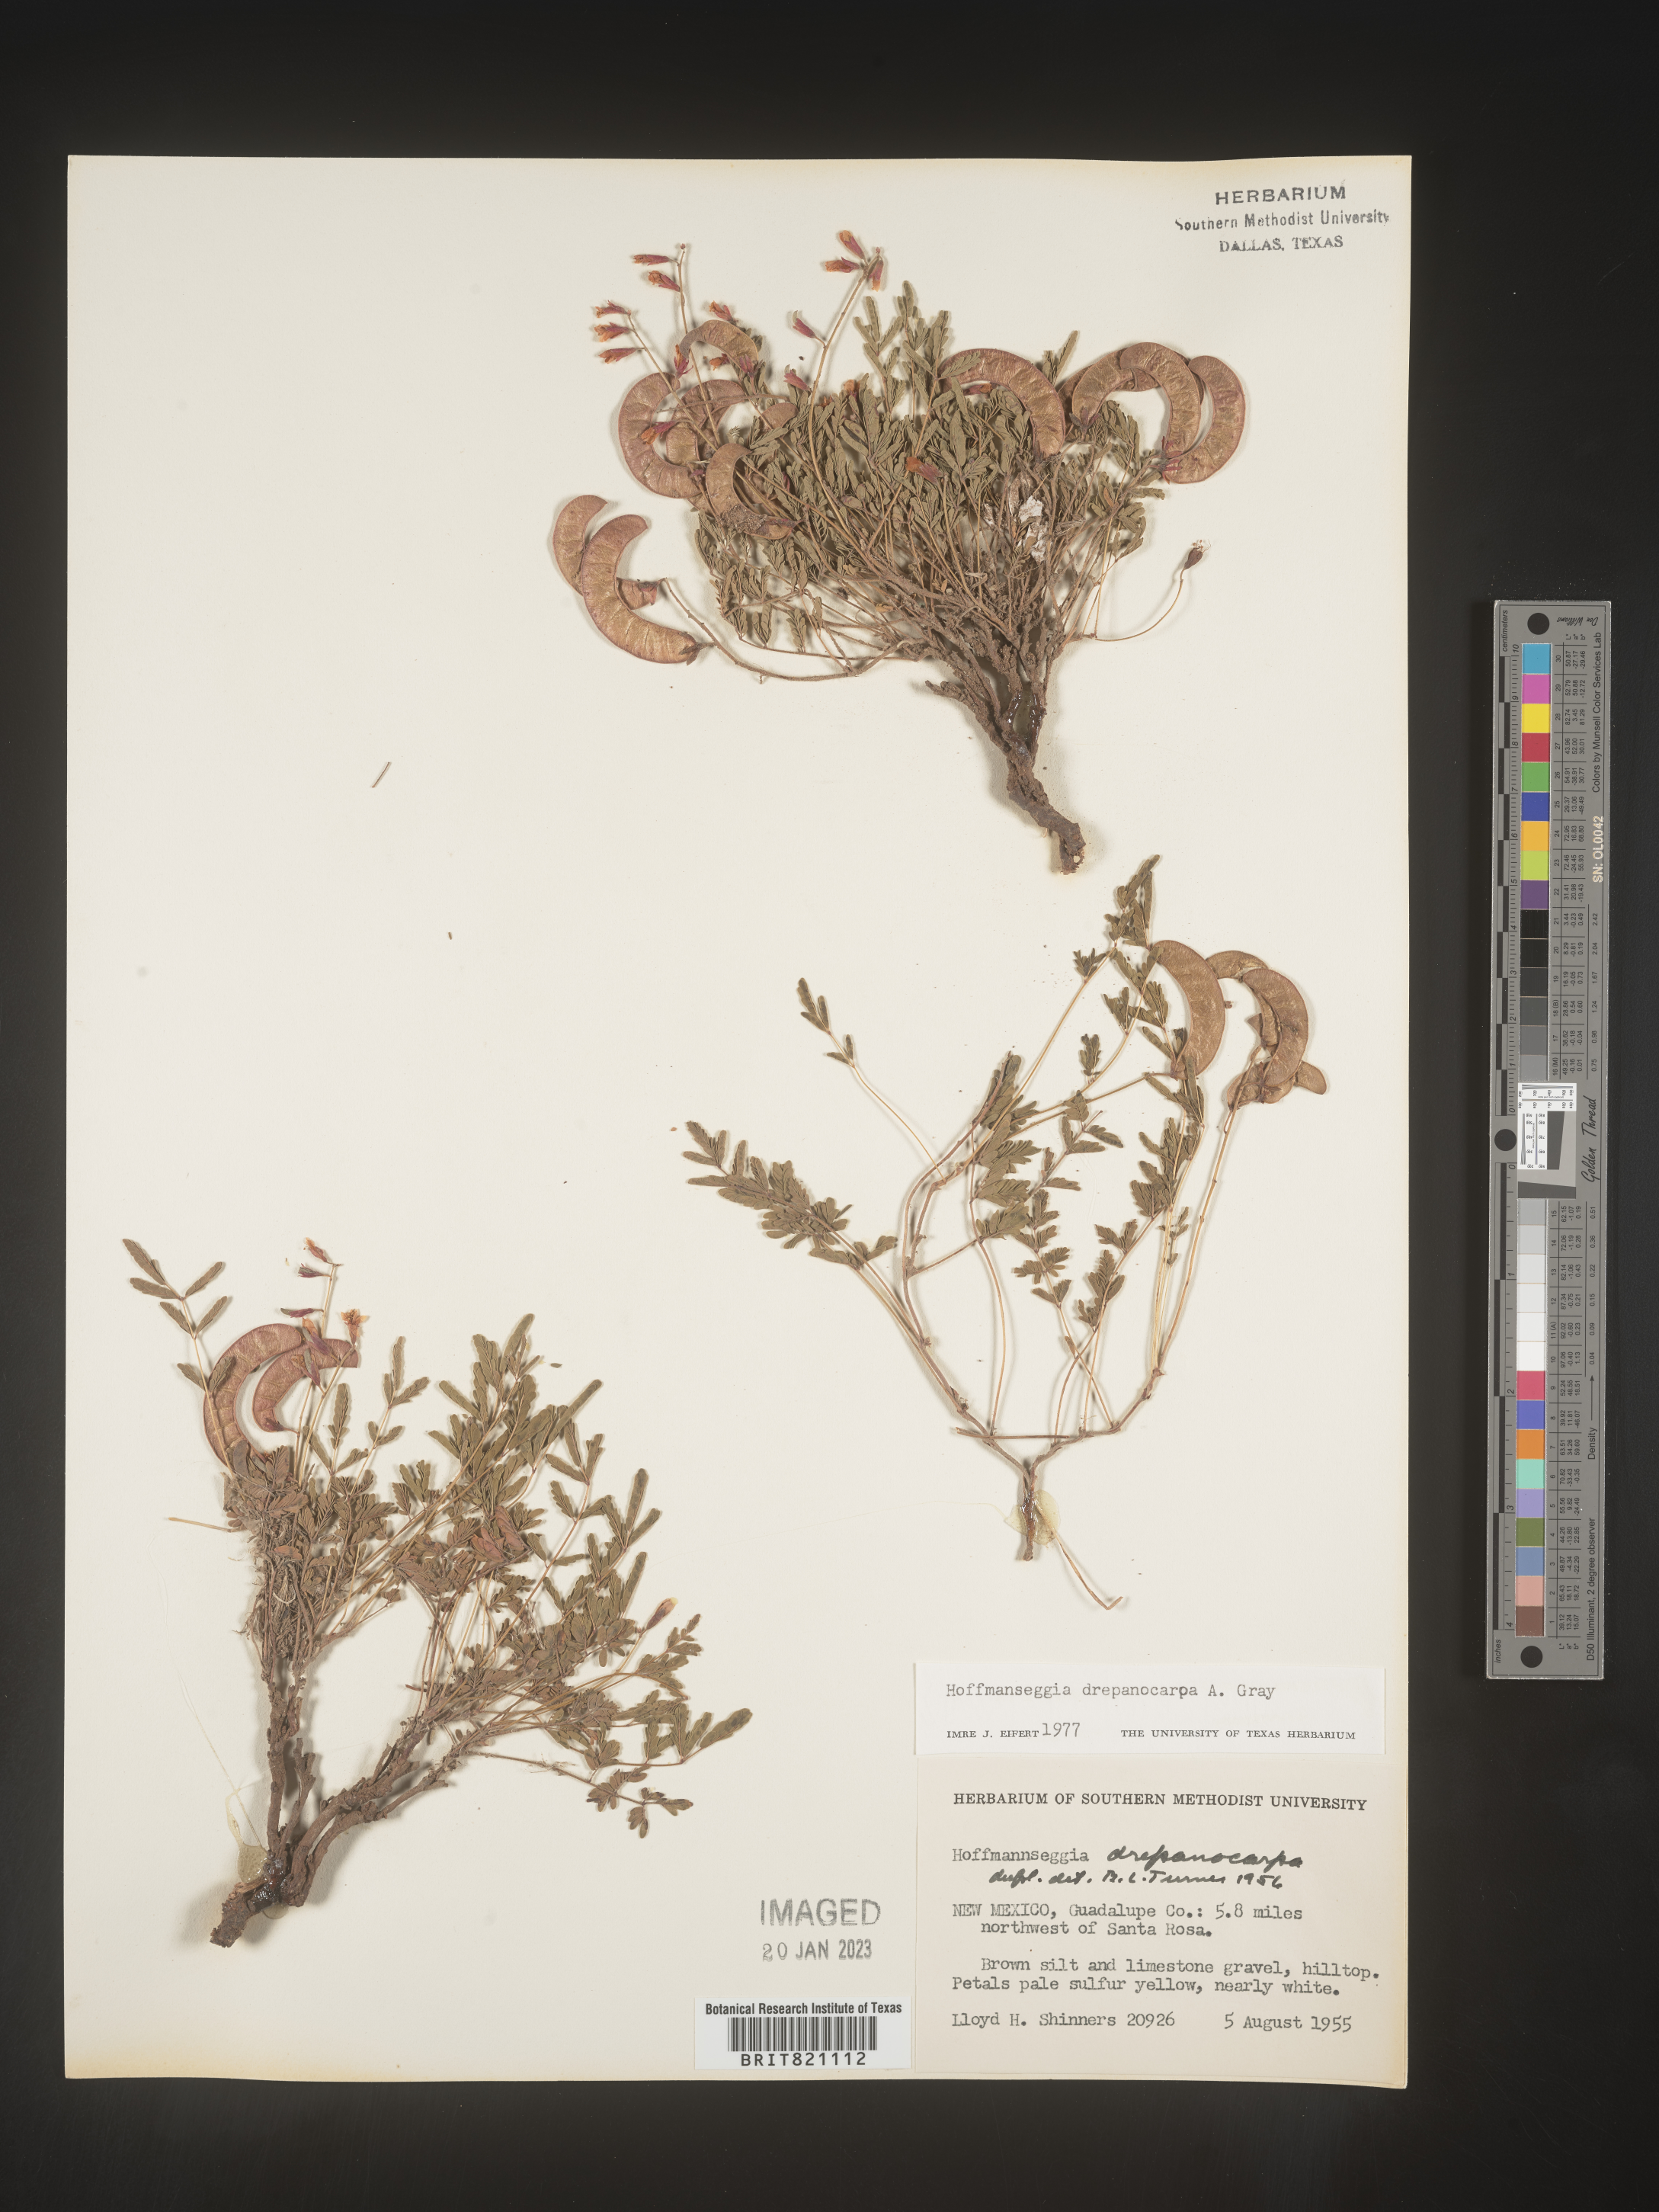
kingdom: Plantae
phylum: Tracheophyta
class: Magnoliopsida
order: Fabales
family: Fabaceae
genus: Hoffmannseggia
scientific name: Hoffmannseggia
